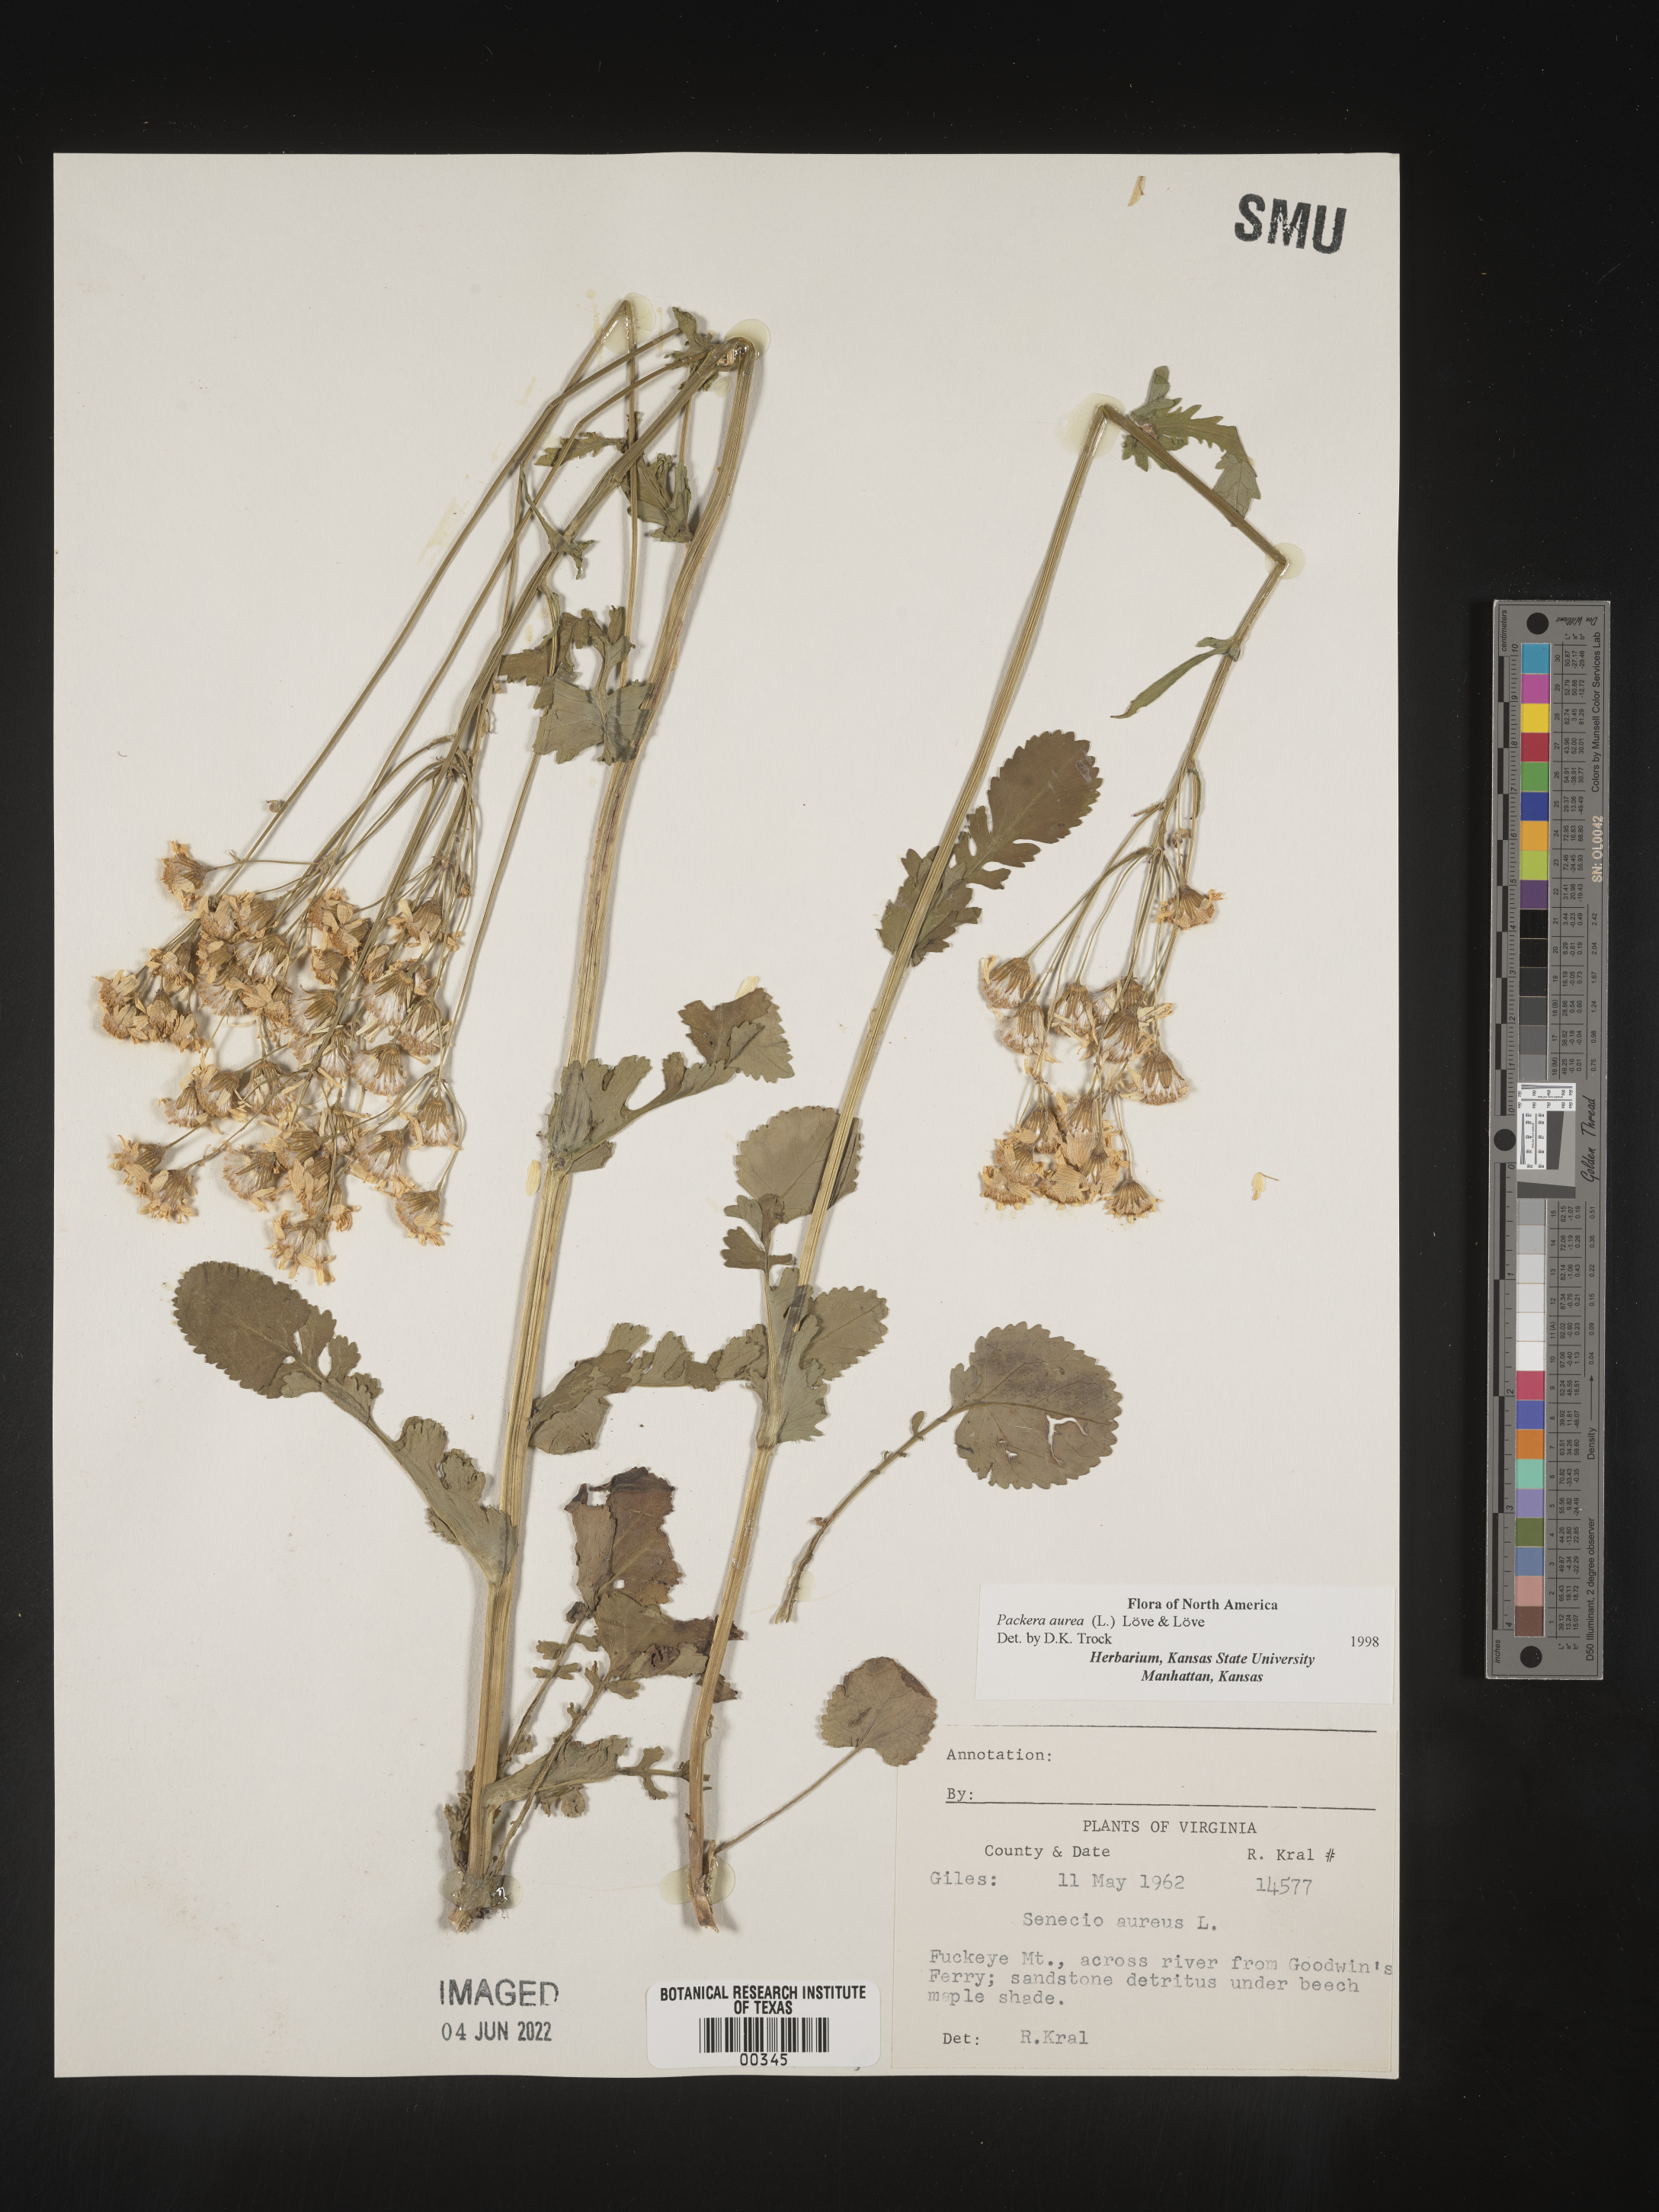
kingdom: Plantae
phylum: Tracheophyta
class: Magnoliopsida
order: Asterales
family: Asteraceae
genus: Packera
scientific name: Packera aurea
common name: Golden groundsel
